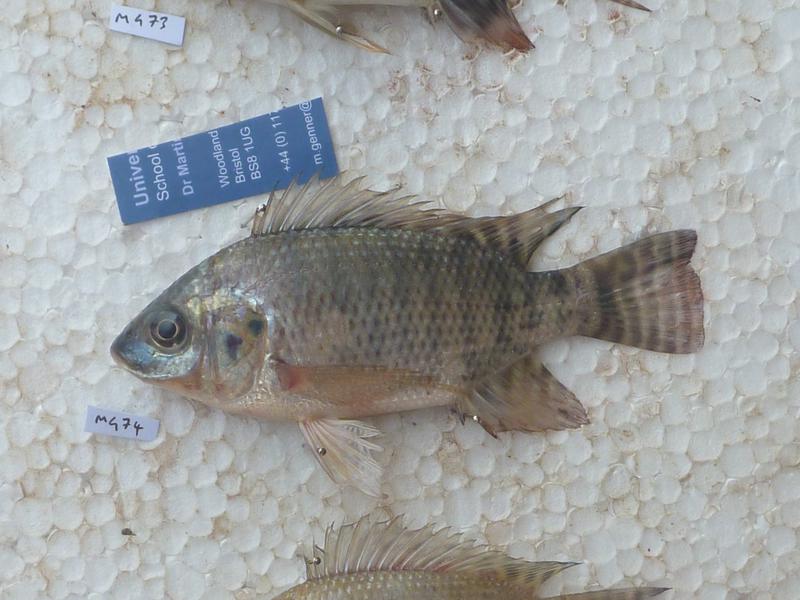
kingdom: Animalia
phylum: Chordata
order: Perciformes
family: Cichlidae
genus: Oreochromis
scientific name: Oreochromis niloticus
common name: Nile tilapia
